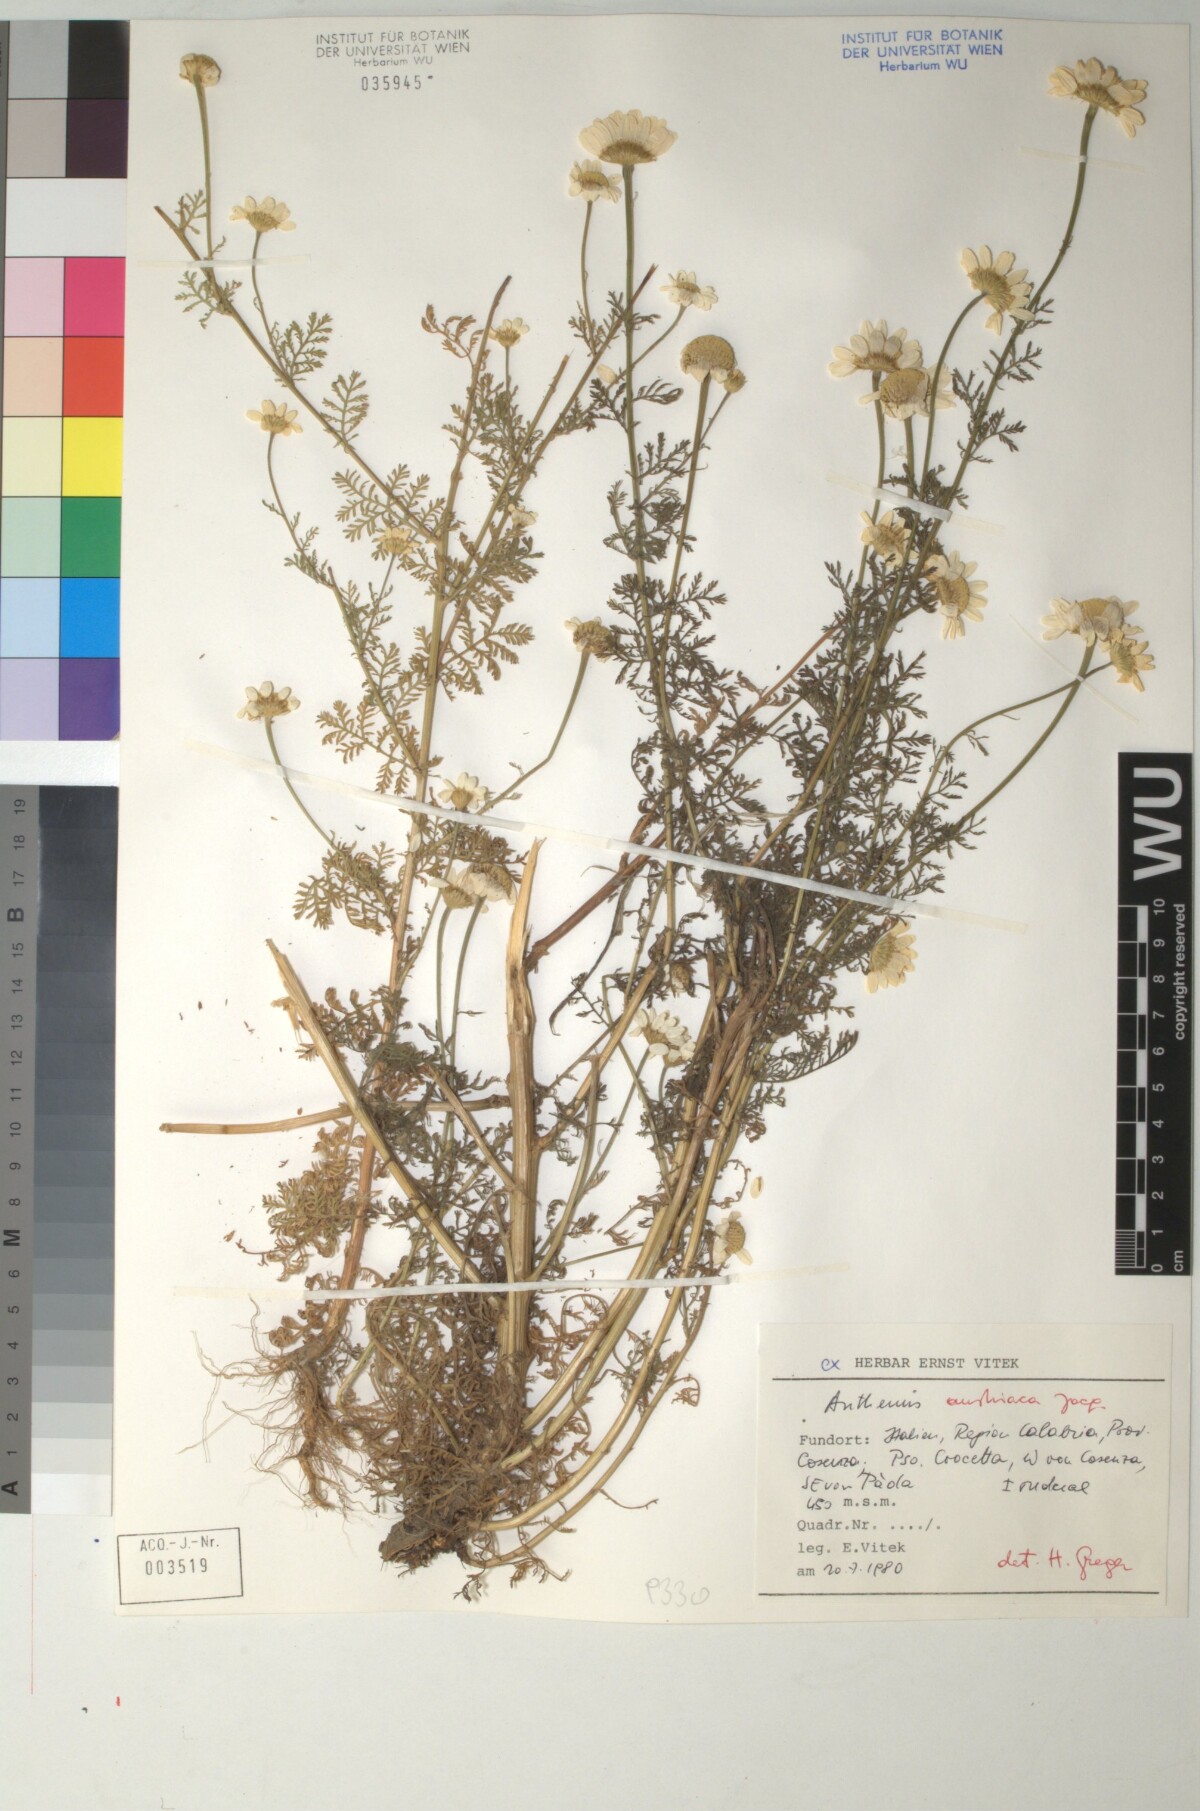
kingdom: Plantae
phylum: Tracheophyta
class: Magnoliopsida
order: Asterales
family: Asteraceae
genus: Cota
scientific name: Cota austriaca
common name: Austrian chamomile
